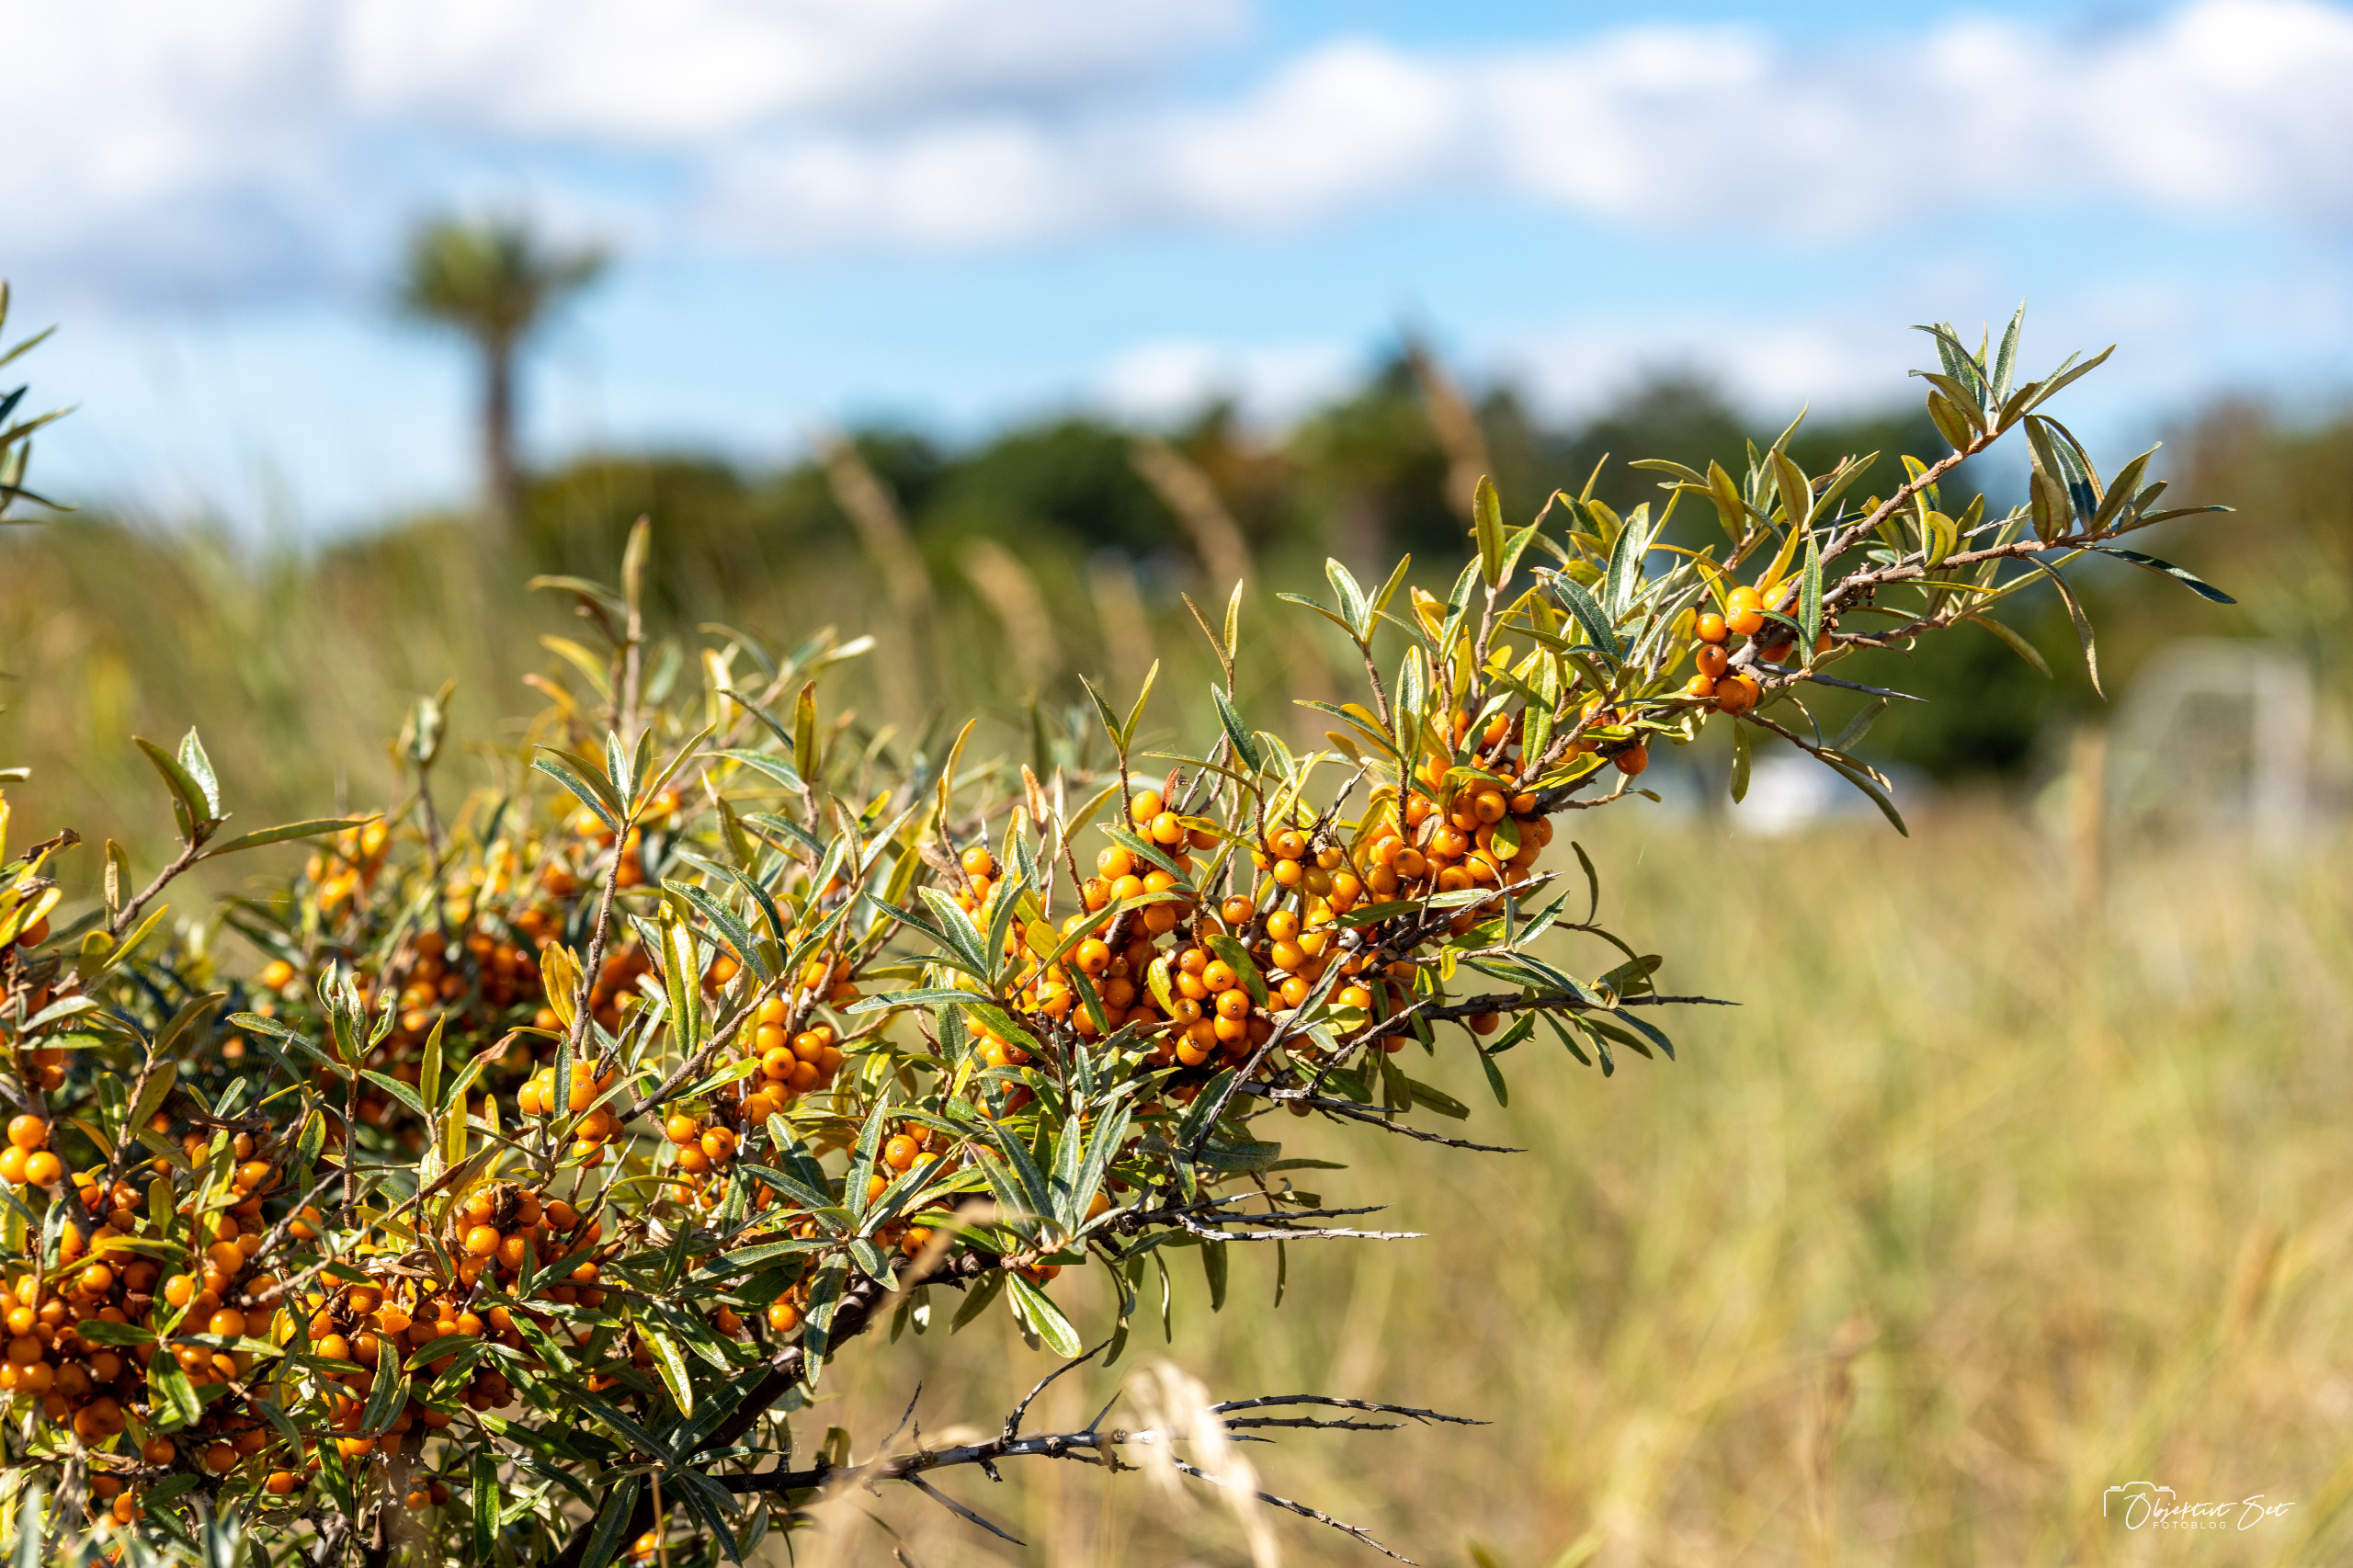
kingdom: Plantae
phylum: Tracheophyta
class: Magnoliopsida
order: Rosales
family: Elaeagnaceae
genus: Hippophae
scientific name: Hippophae rhamnoides
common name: Havtorn
